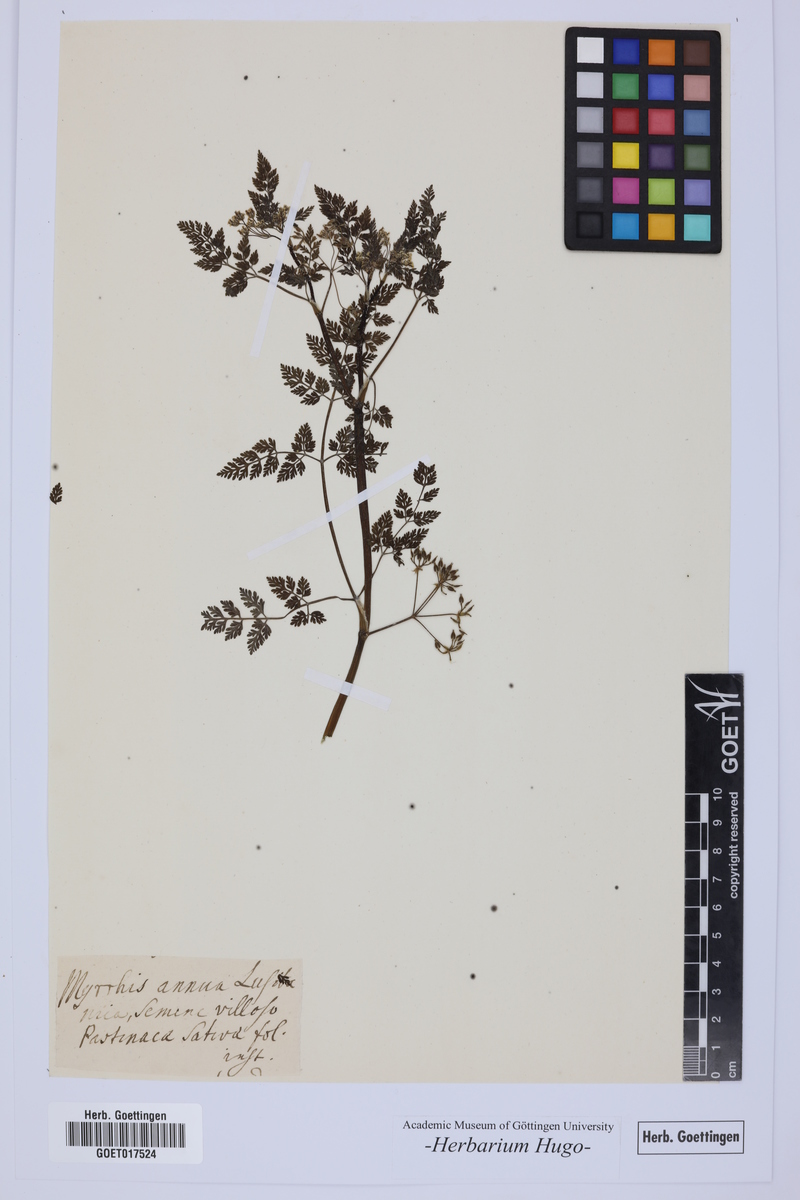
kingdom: Plantae
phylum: Tracheophyta
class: Magnoliopsida
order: Apiales
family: Apiaceae
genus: Myrrhis
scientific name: Myrrhis
